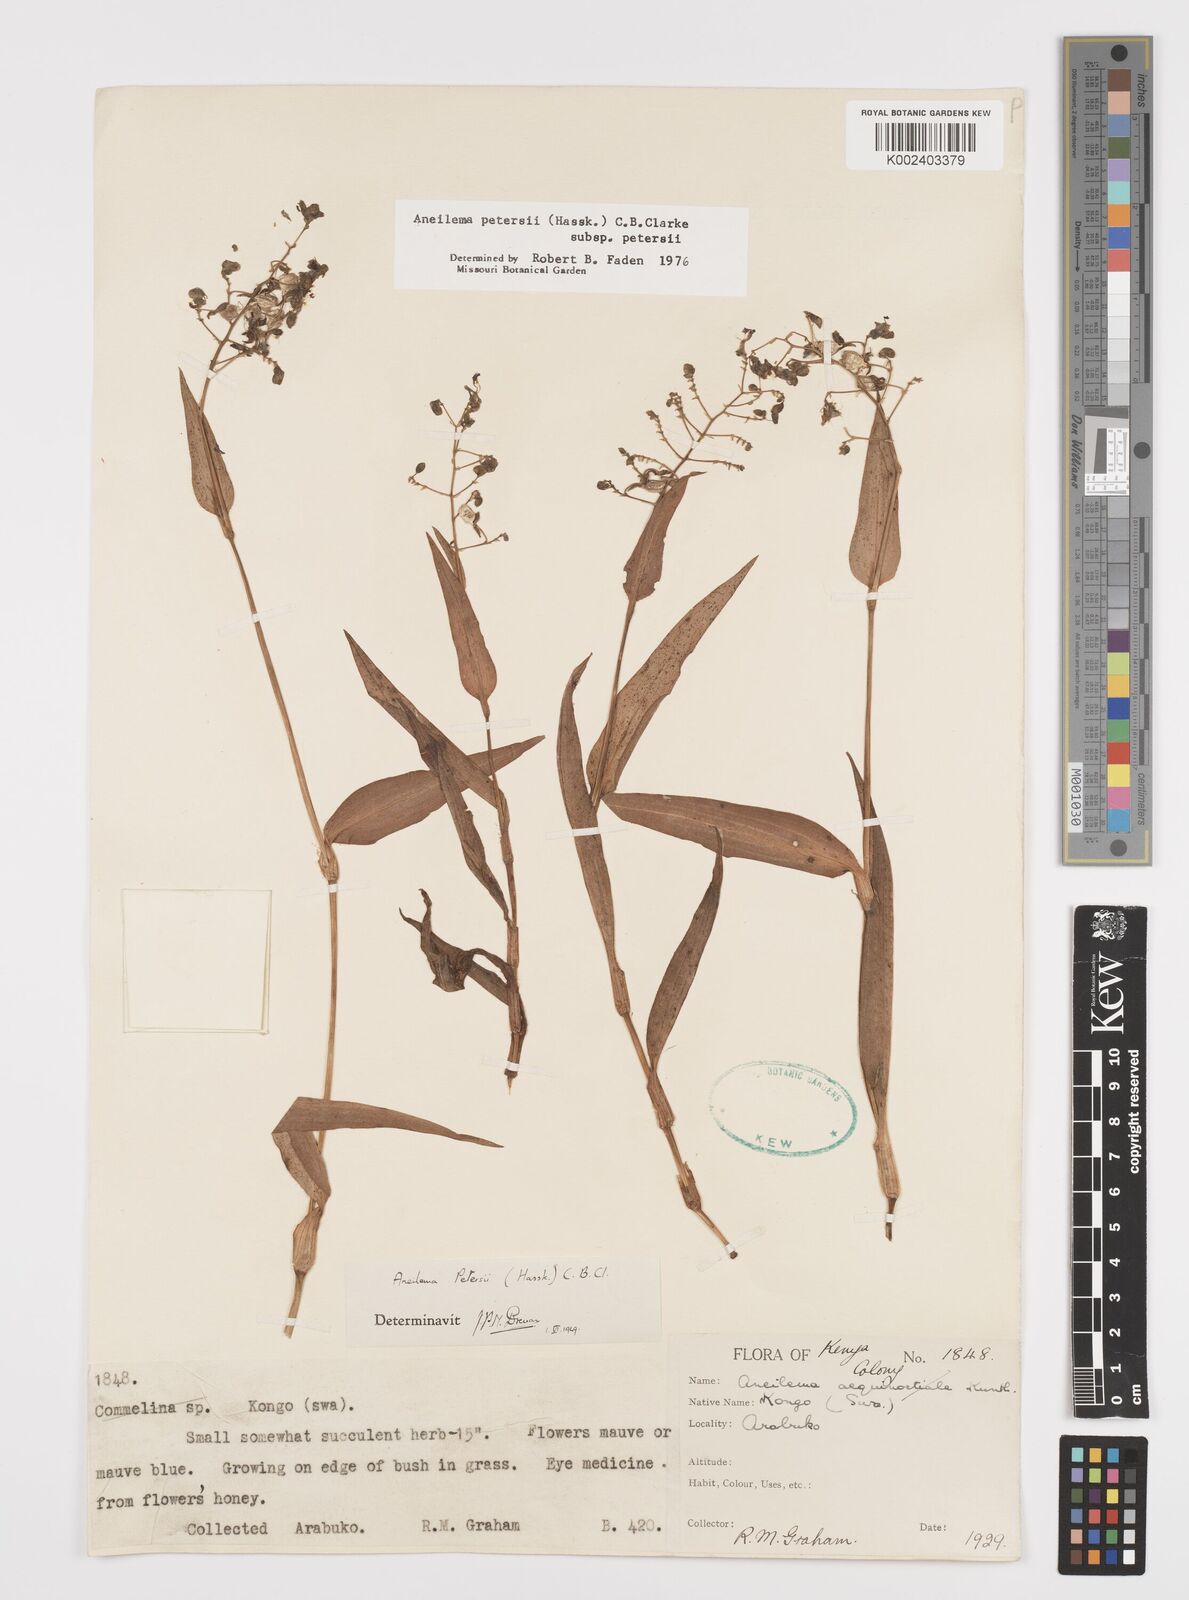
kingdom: Plantae
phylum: Tracheophyta
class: Liliopsida
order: Commelinales
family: Commelinaceae
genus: Aneilema
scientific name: Aneilema petersii
